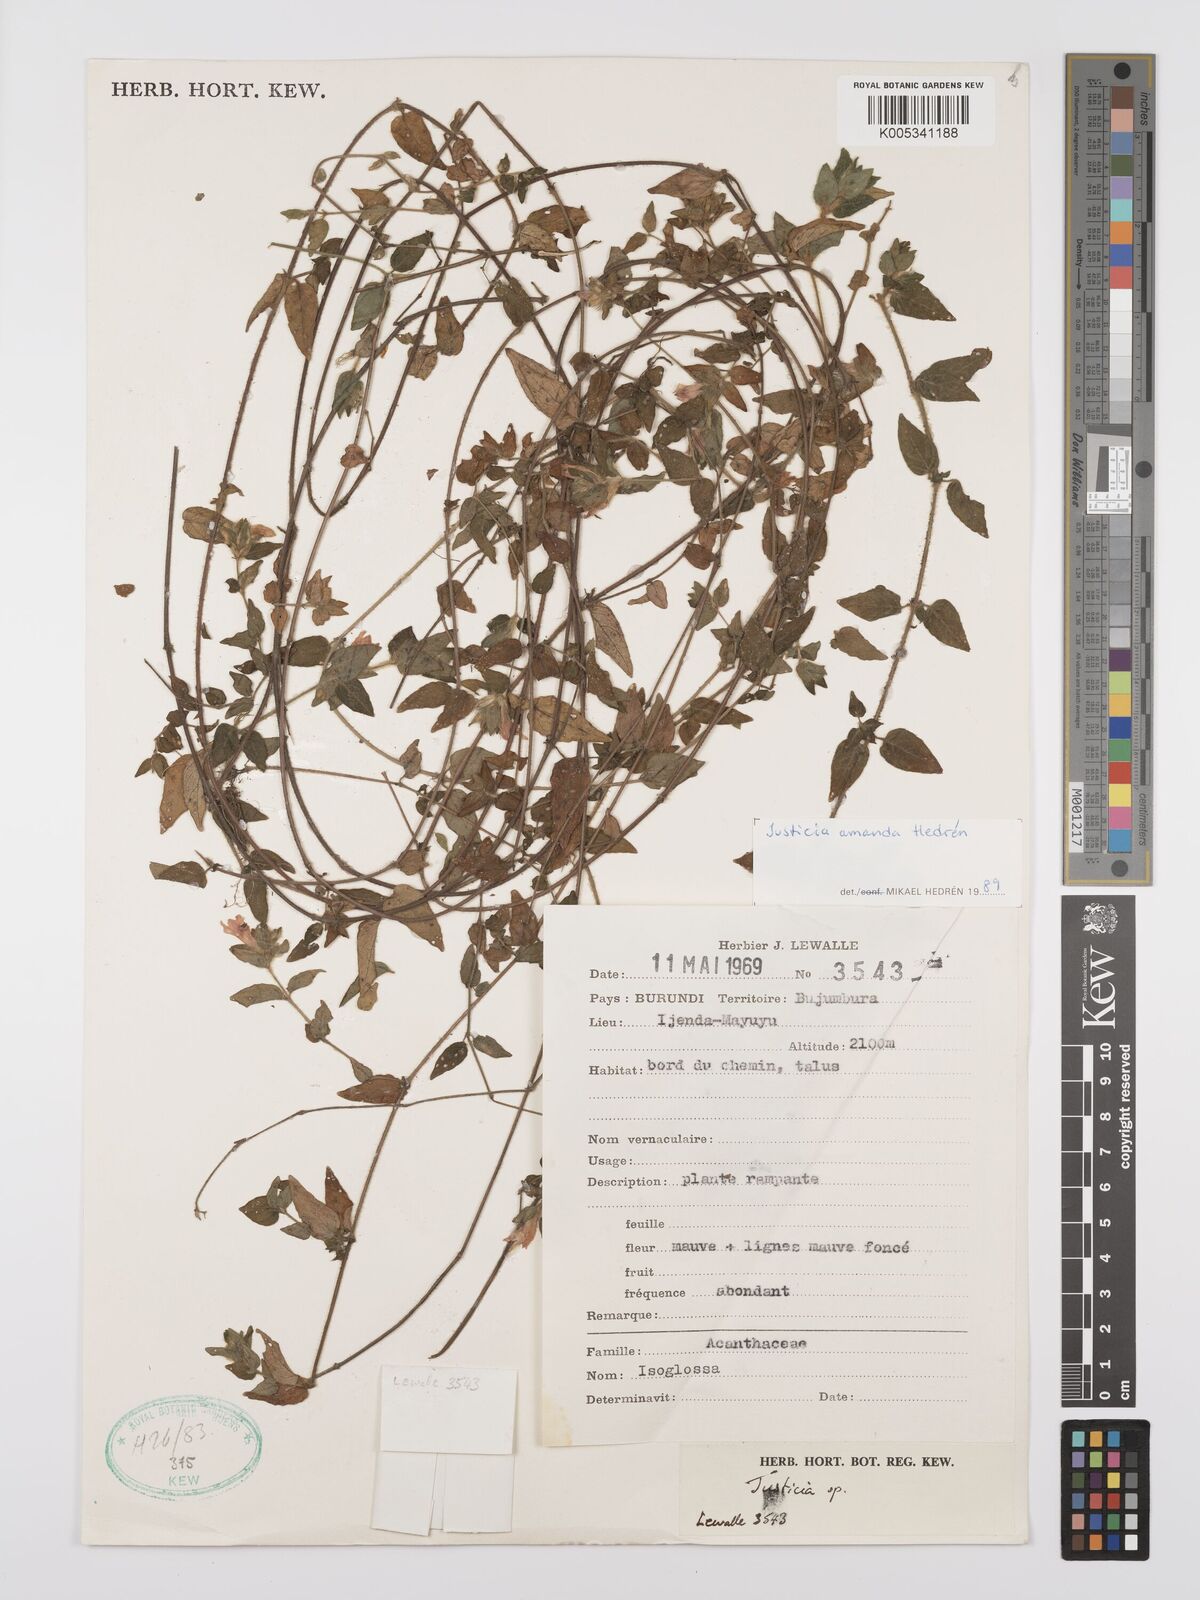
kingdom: Plantae
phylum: Tracheophyta
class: Magnoliopsida
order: Lamiales
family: Acanthaceae
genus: Justicia
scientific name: Justicia amanda
